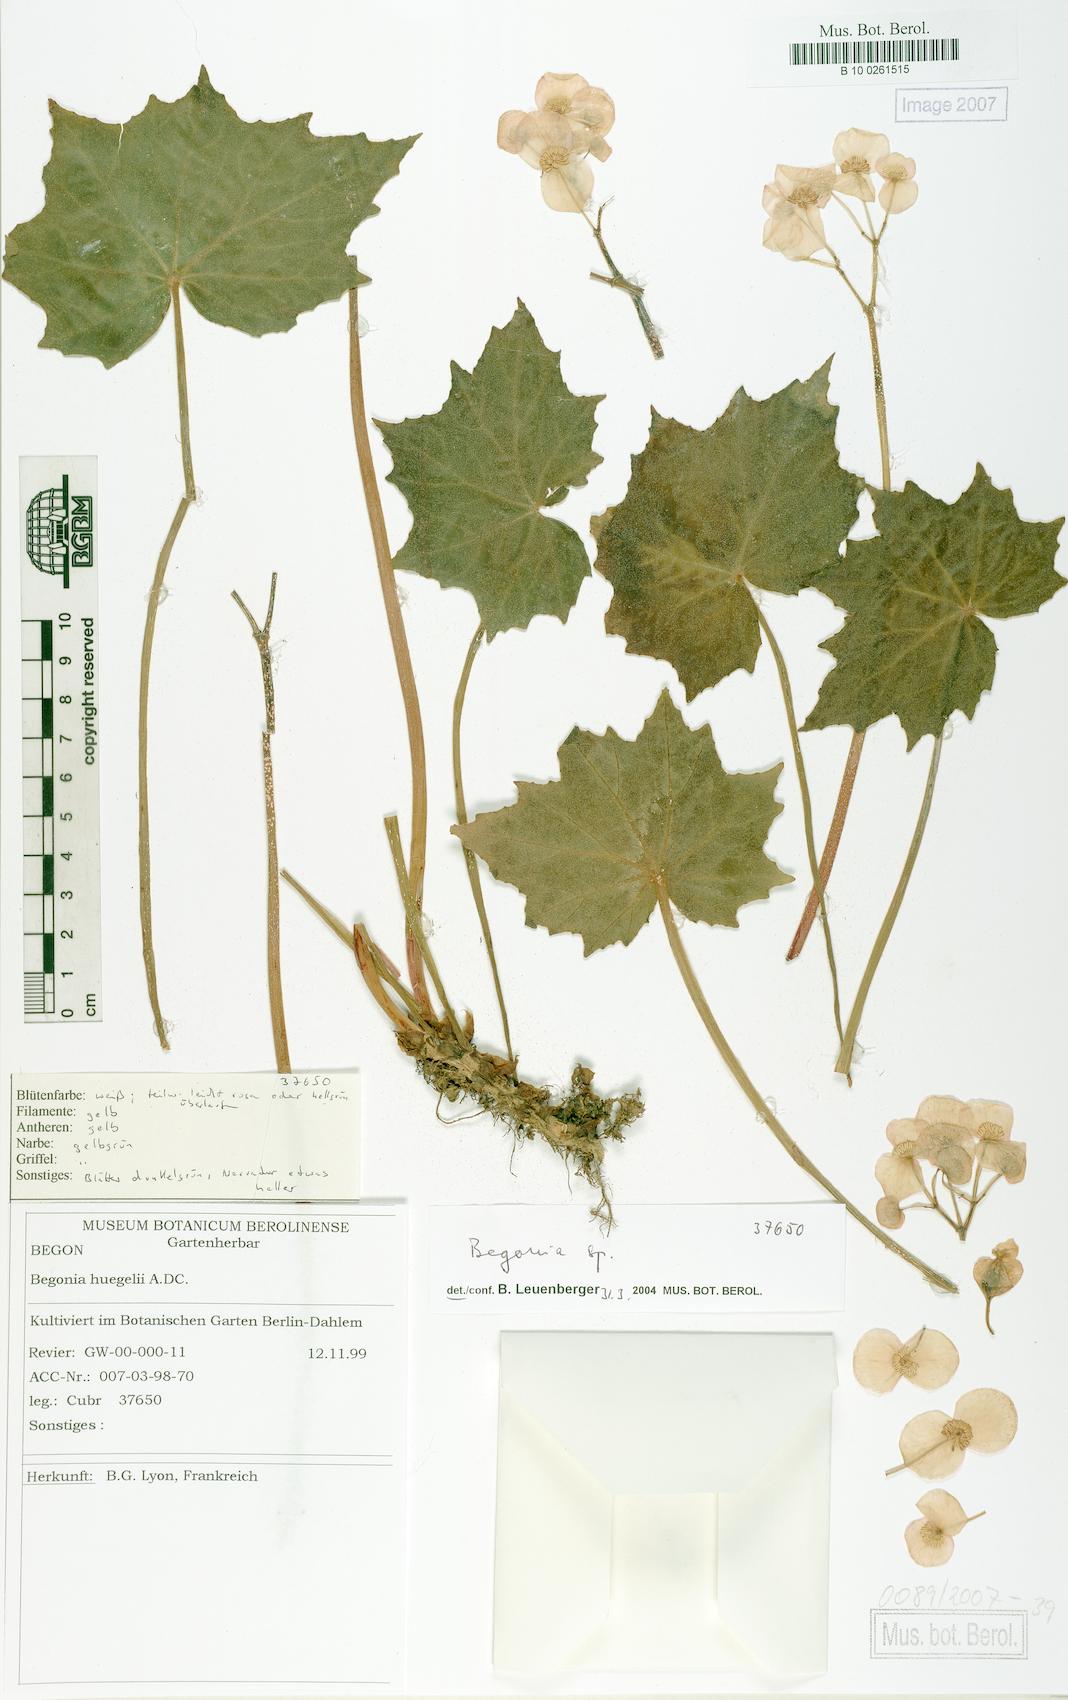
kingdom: Plantae
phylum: Tracheophyta
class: Magnoliopsida
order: Cucurbitales
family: Begoniaceae
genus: Begonia
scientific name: Begonia
